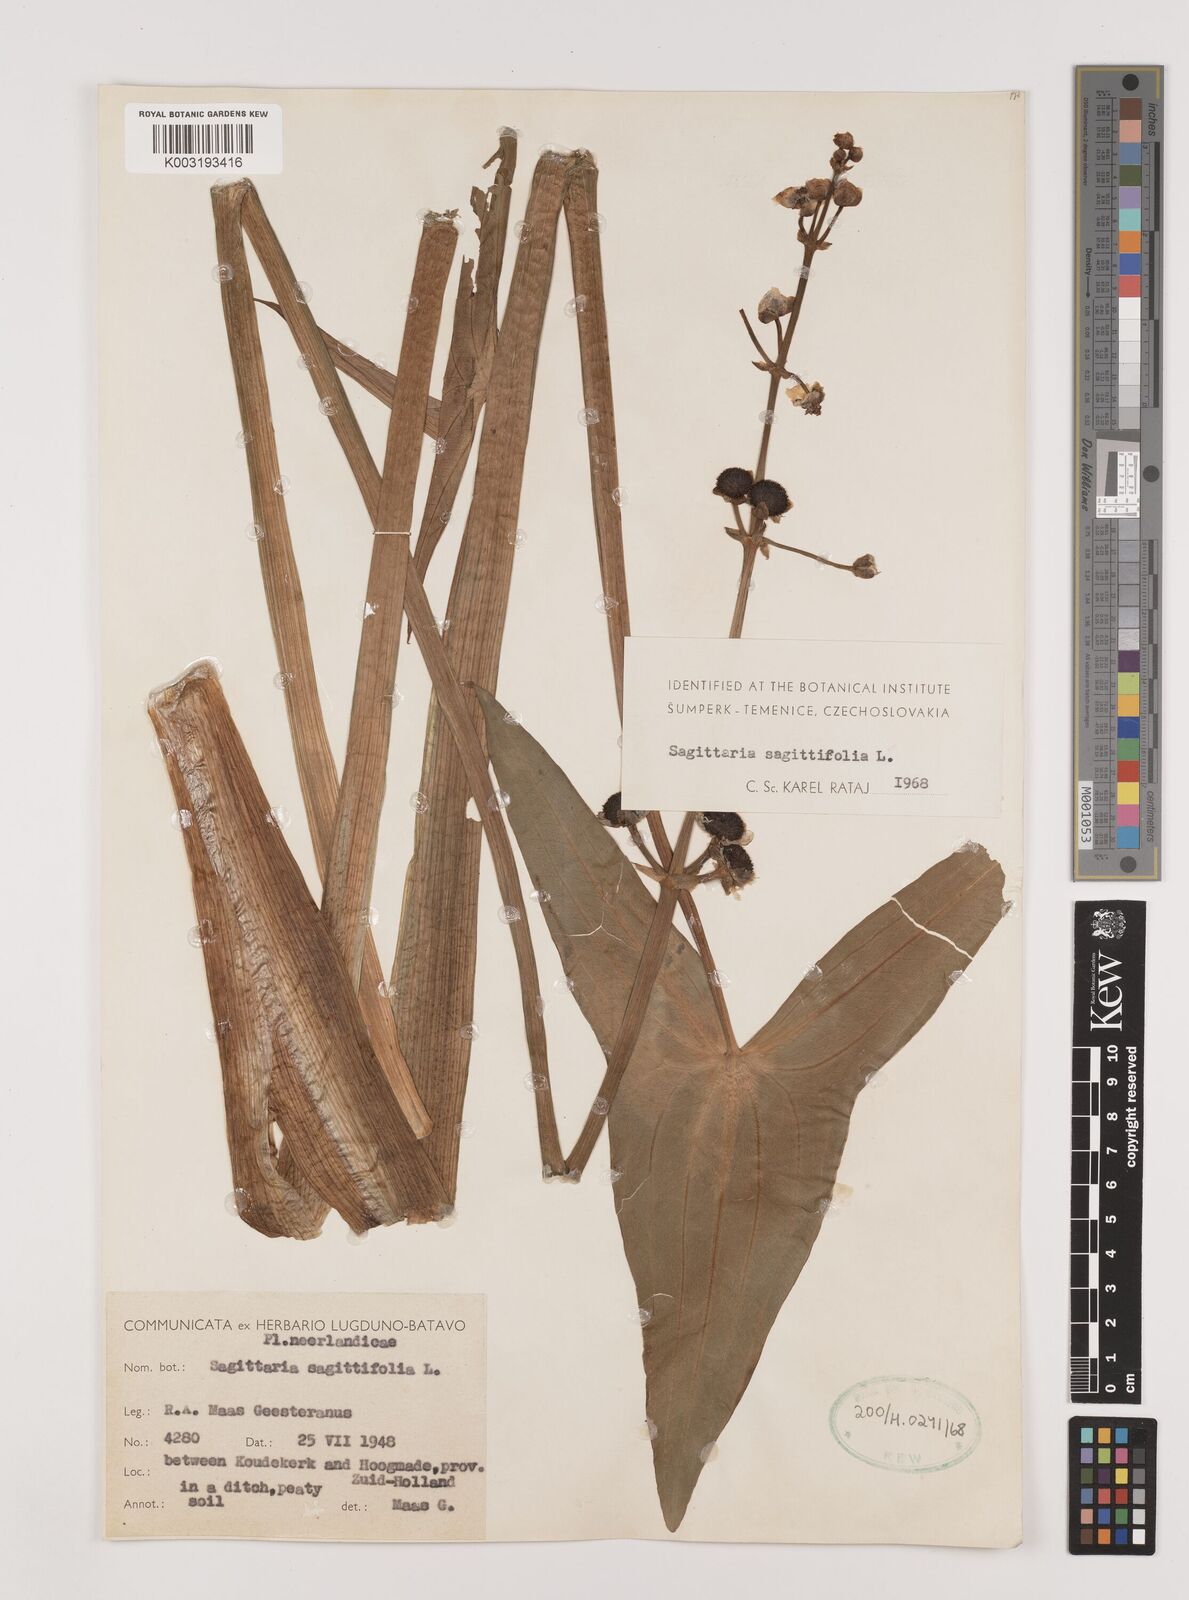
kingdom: Plantae
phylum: Tracheophyta
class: Liliopsida
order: Alismatales
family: Alismataceae
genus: Sagittaria
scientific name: Sagittaria sagittifolia
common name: Arrowhead
